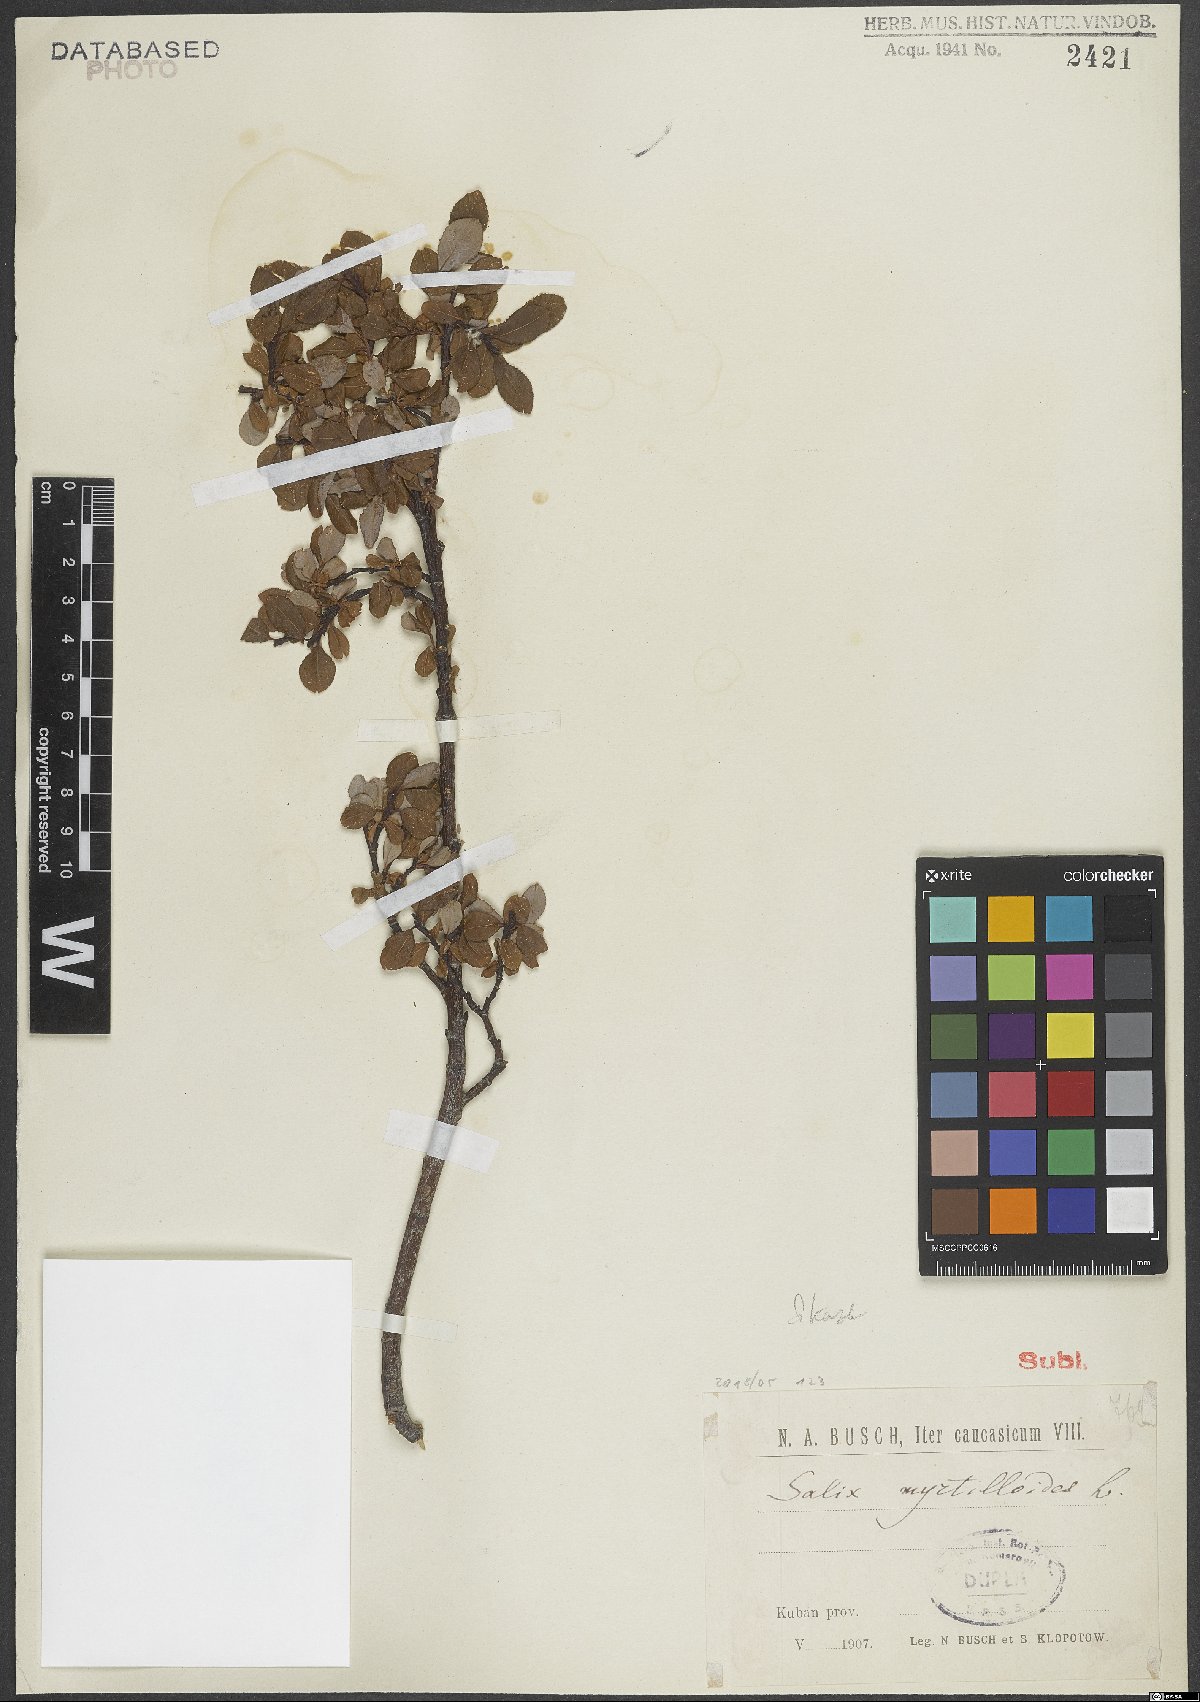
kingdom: Plantae
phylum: Tracheophyta
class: Magnoliopsida
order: Malpighiales
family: Salicaceae
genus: Salix
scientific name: Salix myrtilloides
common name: Myrtle-leaved willow
